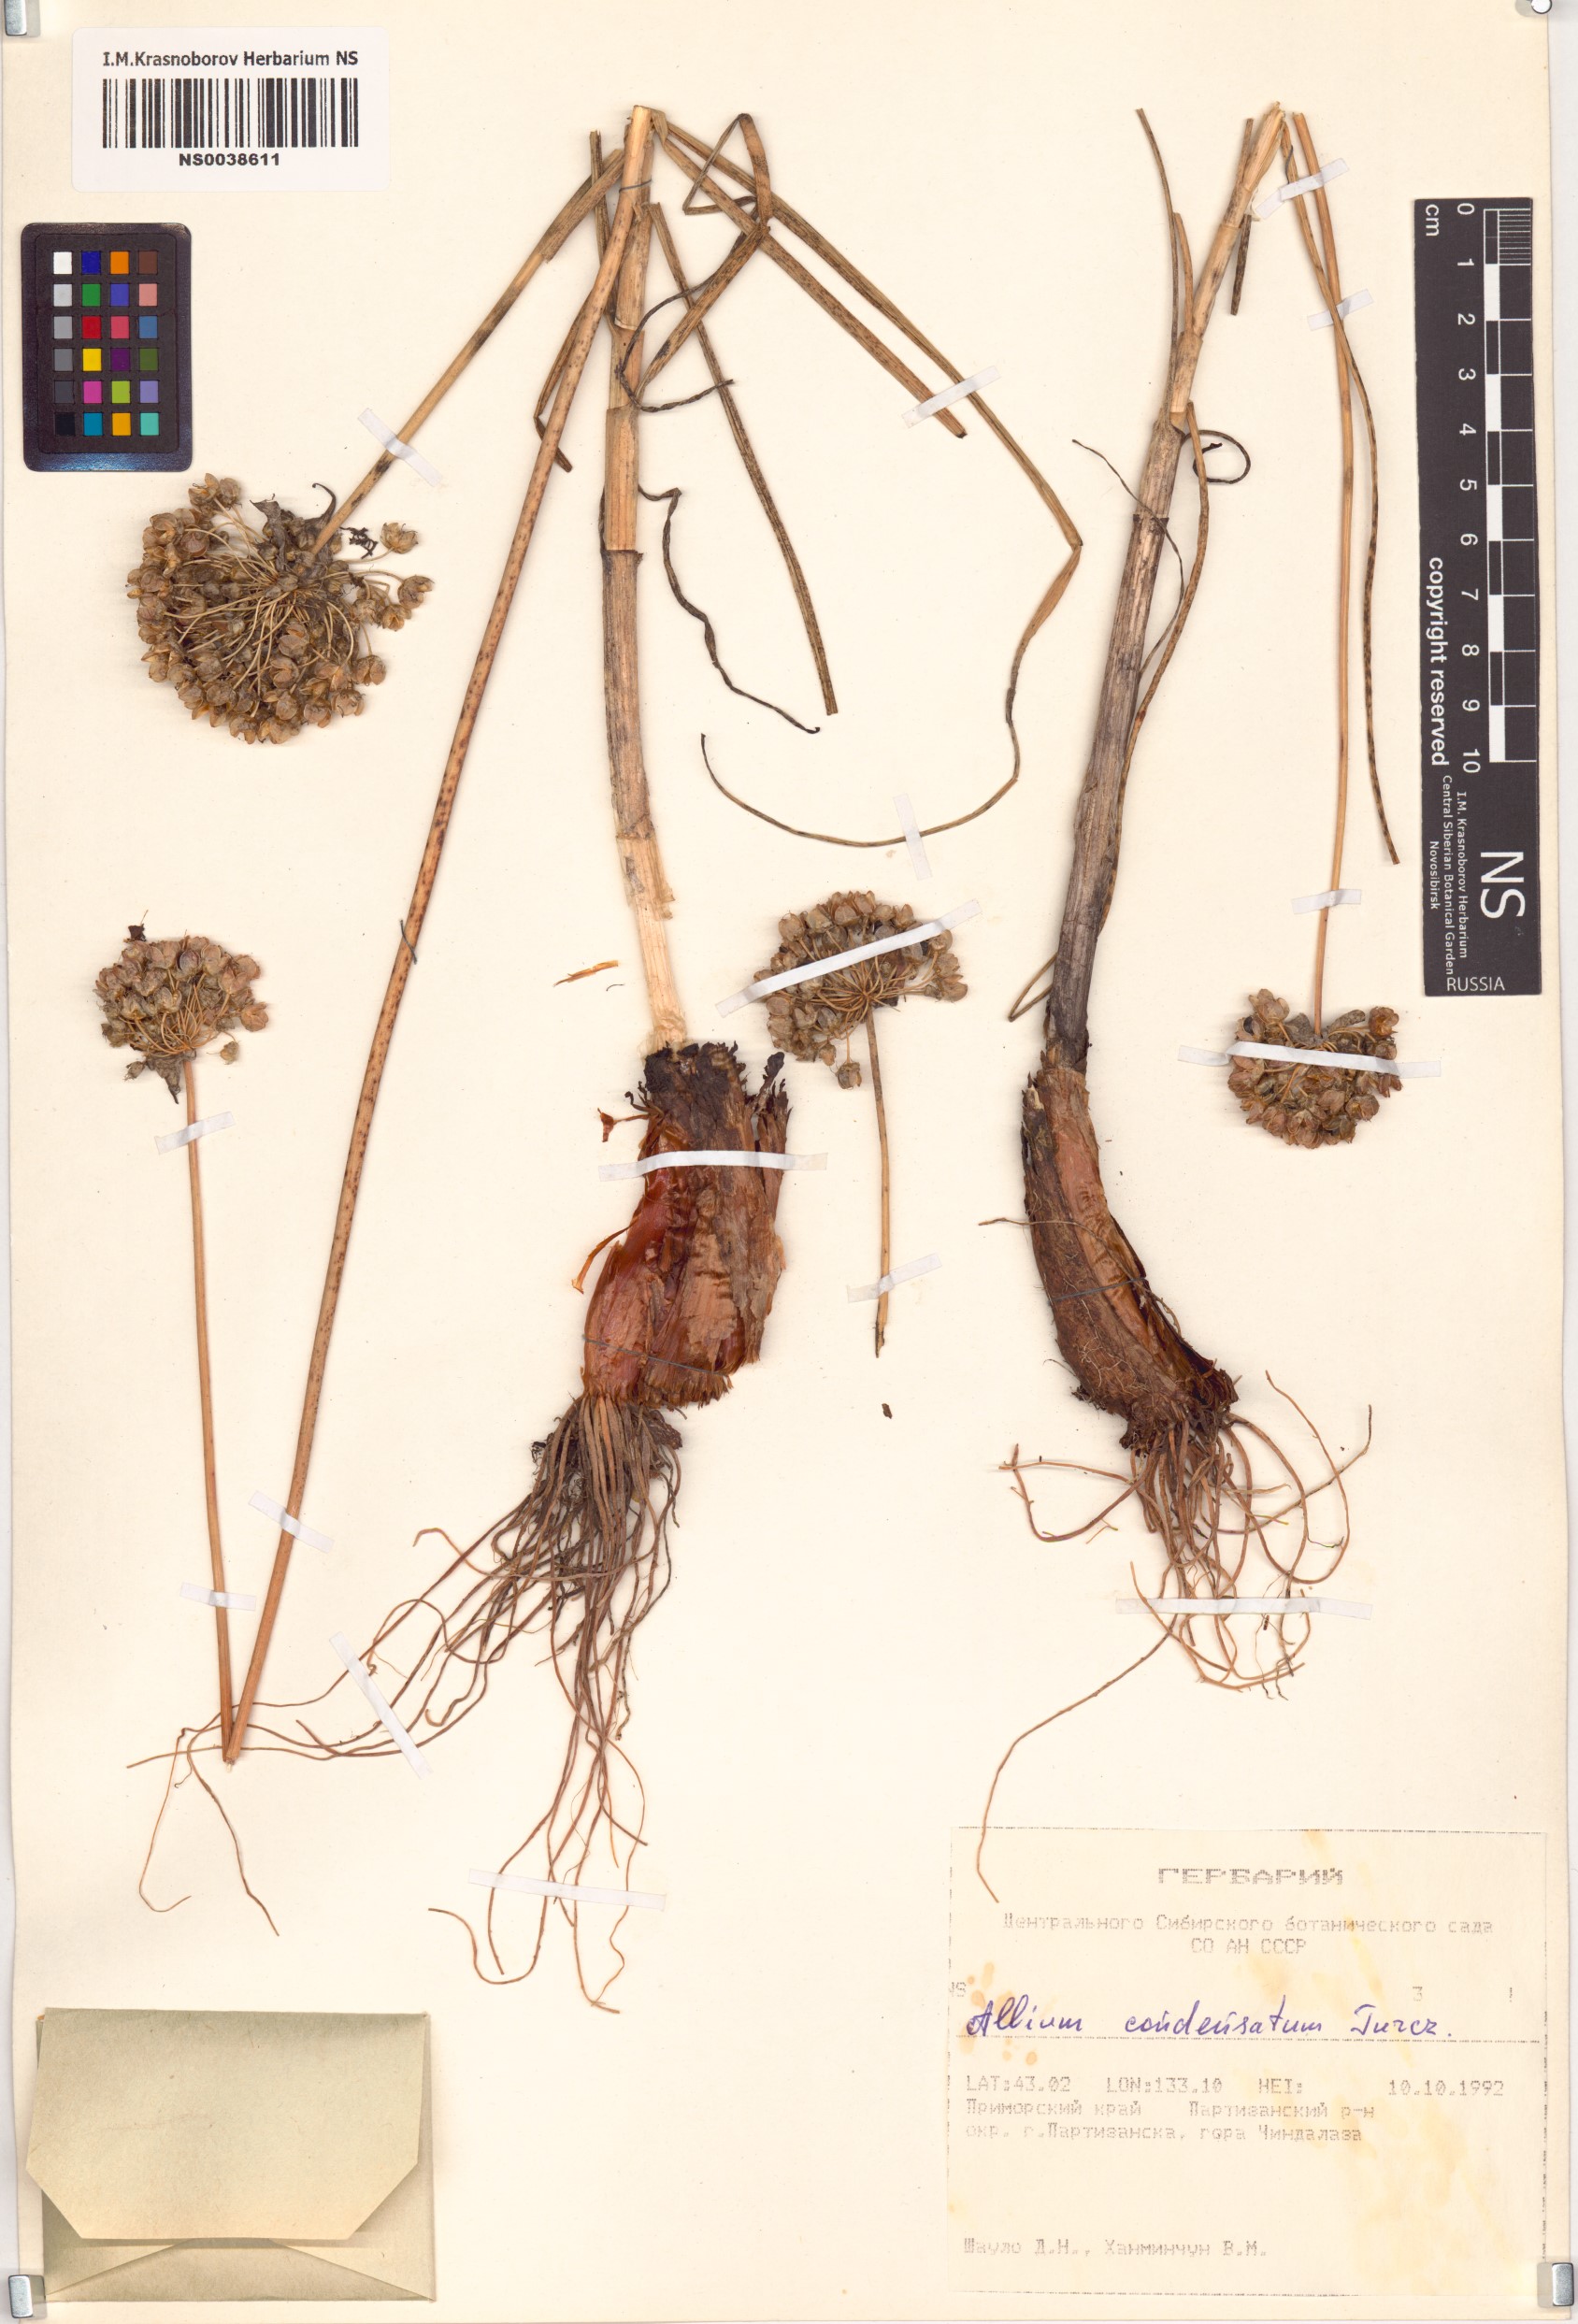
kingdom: Plantae
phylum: Tracheophyta
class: Liliopsida
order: Asparagales
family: Amaryllidaceae
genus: Allium
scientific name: Allium condensatum
